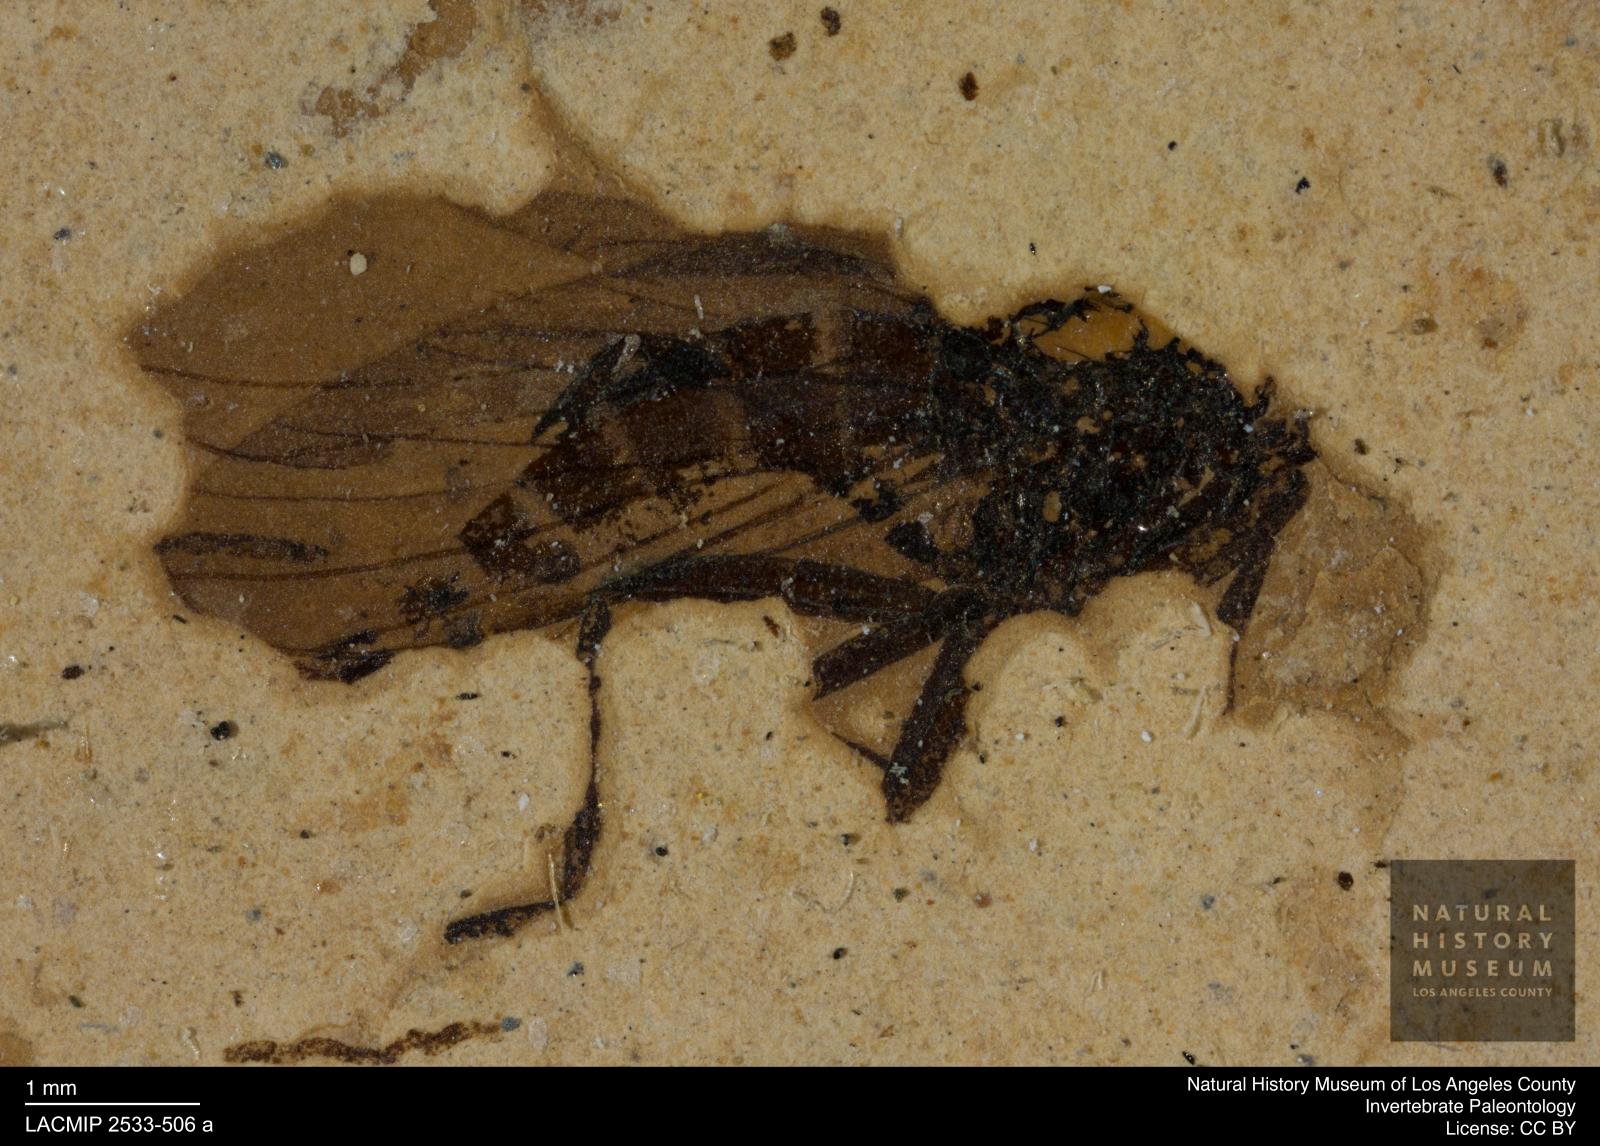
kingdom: Animalia
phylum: Arthropoda
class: Insecta
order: Diptera
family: Empididae
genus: Rhamphomyia
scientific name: Rhamphomyia rottensis
